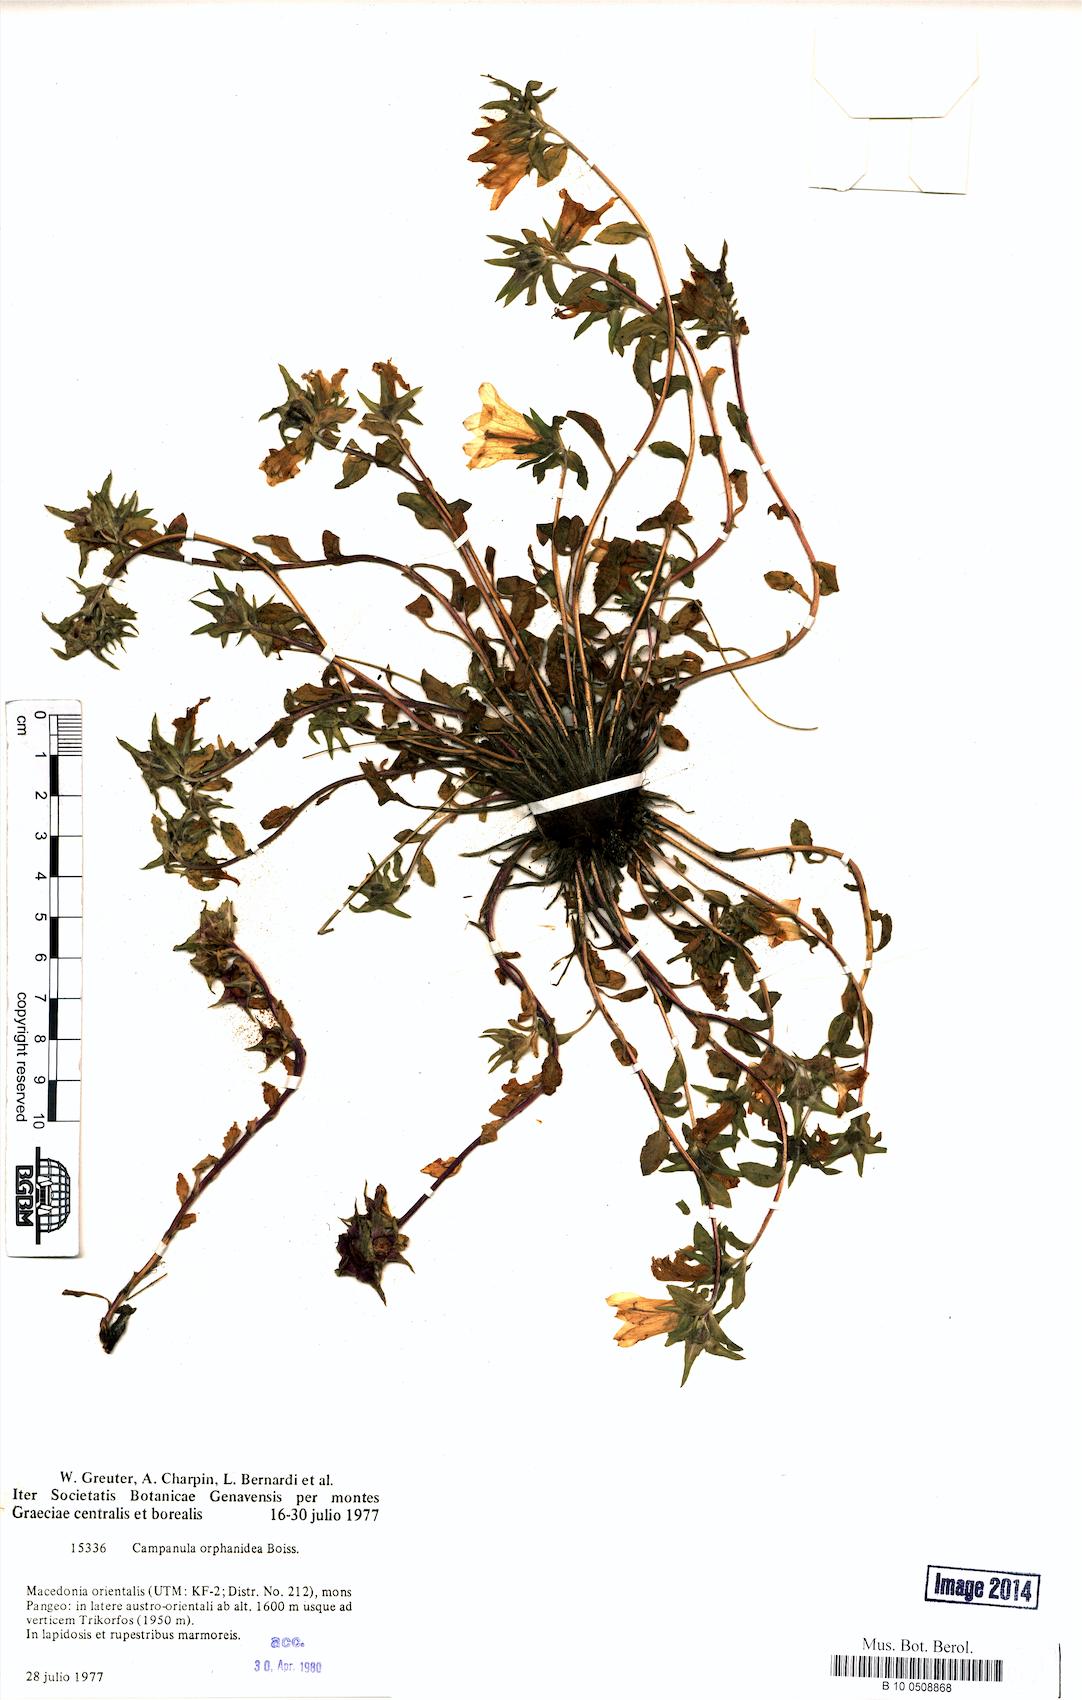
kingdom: Plantae
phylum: Tracheophyta
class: Magnoliopsida
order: Asterales
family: Campanulaceae
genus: Campanula
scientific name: Campanula orphanidea
